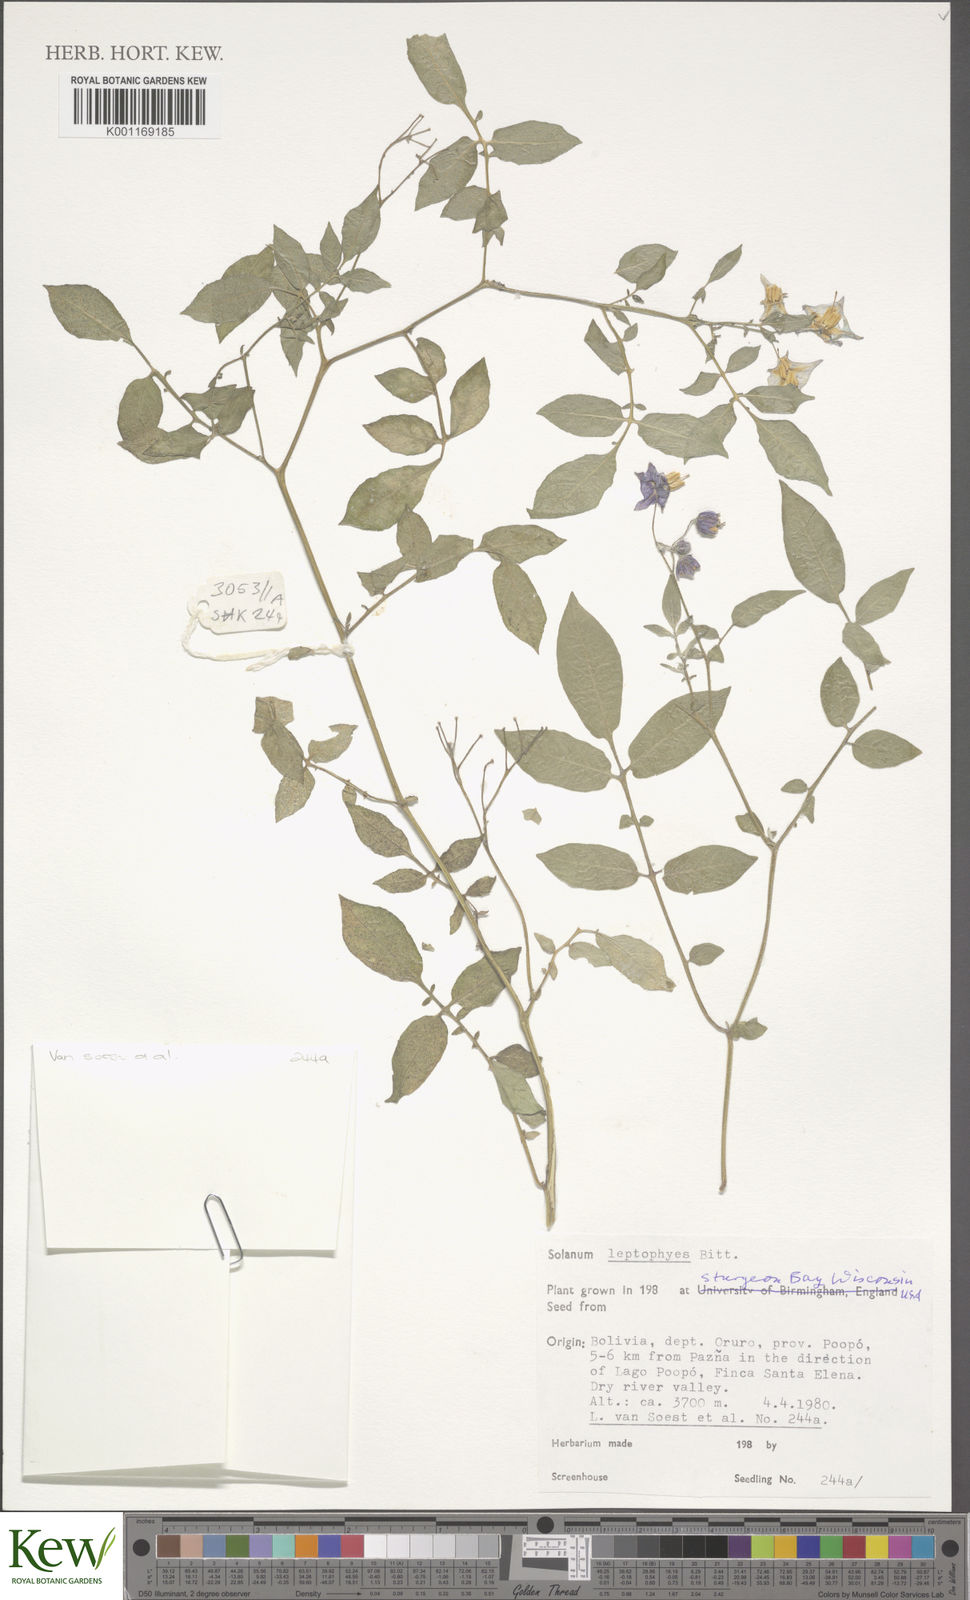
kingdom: Plantae
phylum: Tracheophyta
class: Magnoliopsida
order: Solanales
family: Solanaceae
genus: Solanum
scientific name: Solanum brevicaule
